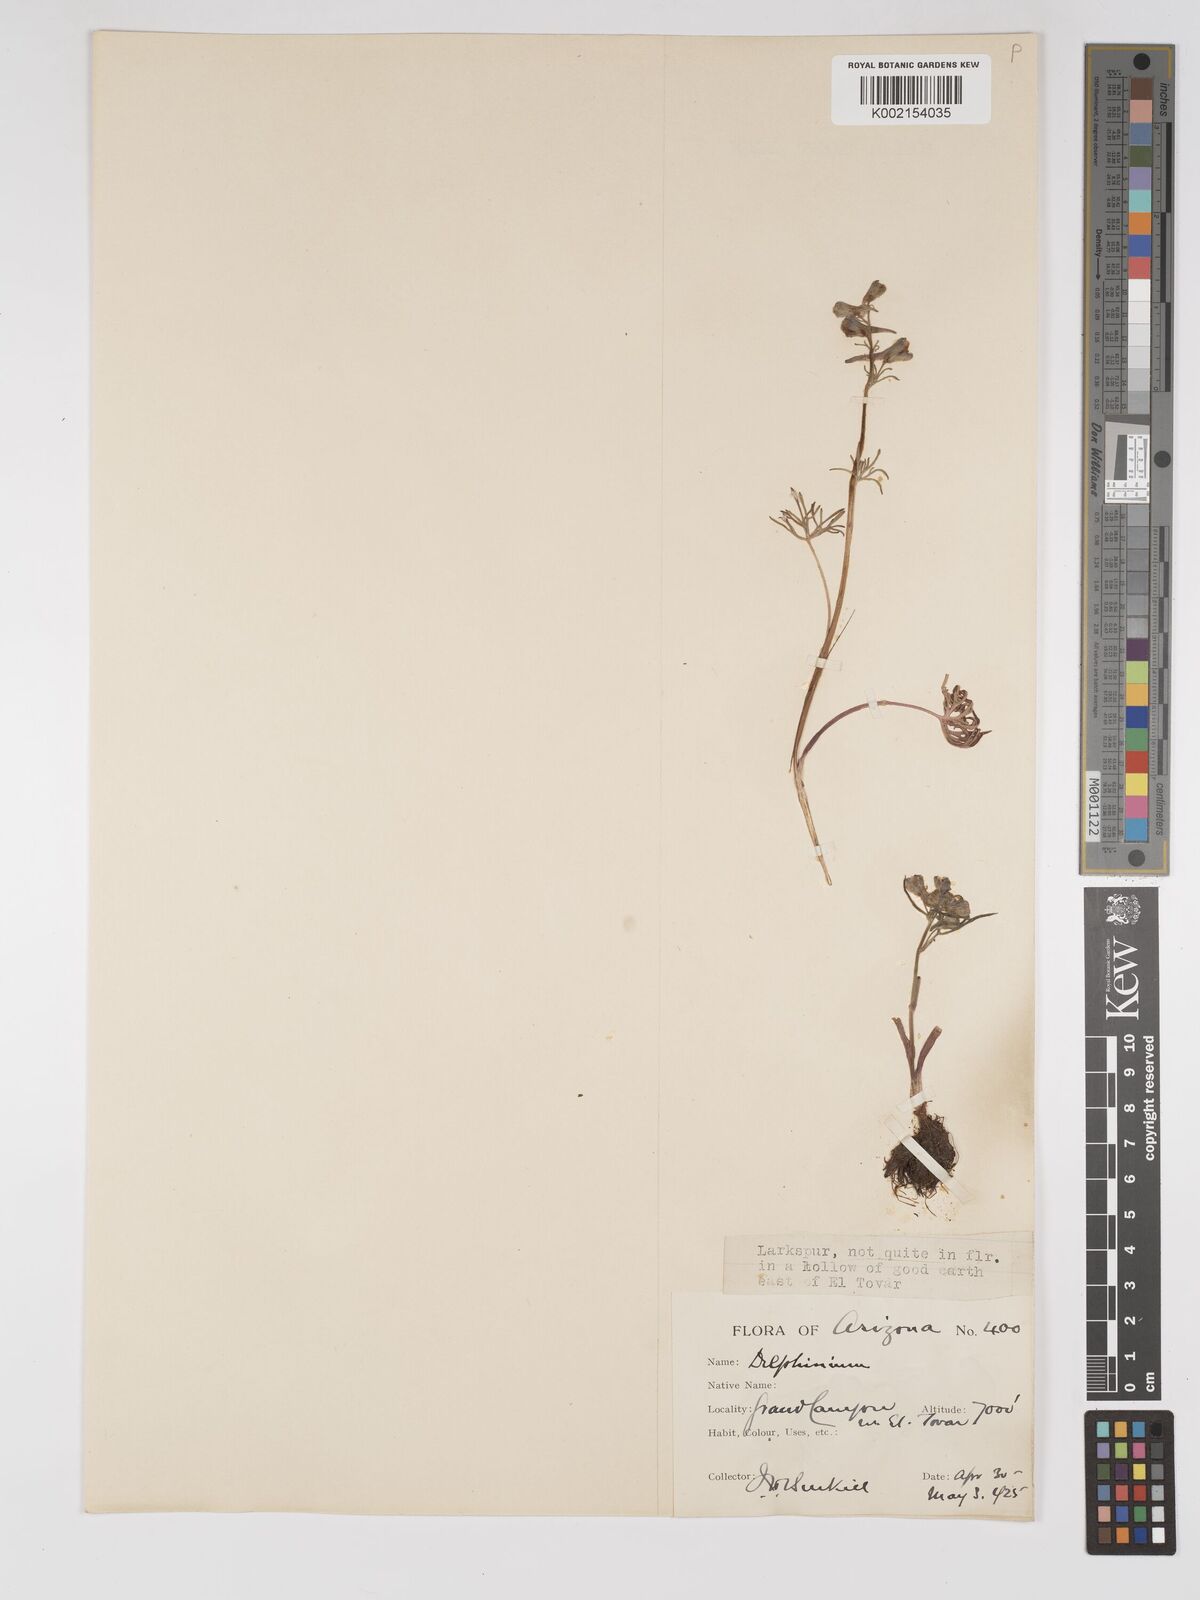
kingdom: Plantae
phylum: Tracheophyta
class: Magnoliopsida
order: Ranunculales
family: Ranunculaceae
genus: Delphinium
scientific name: Delphinium
